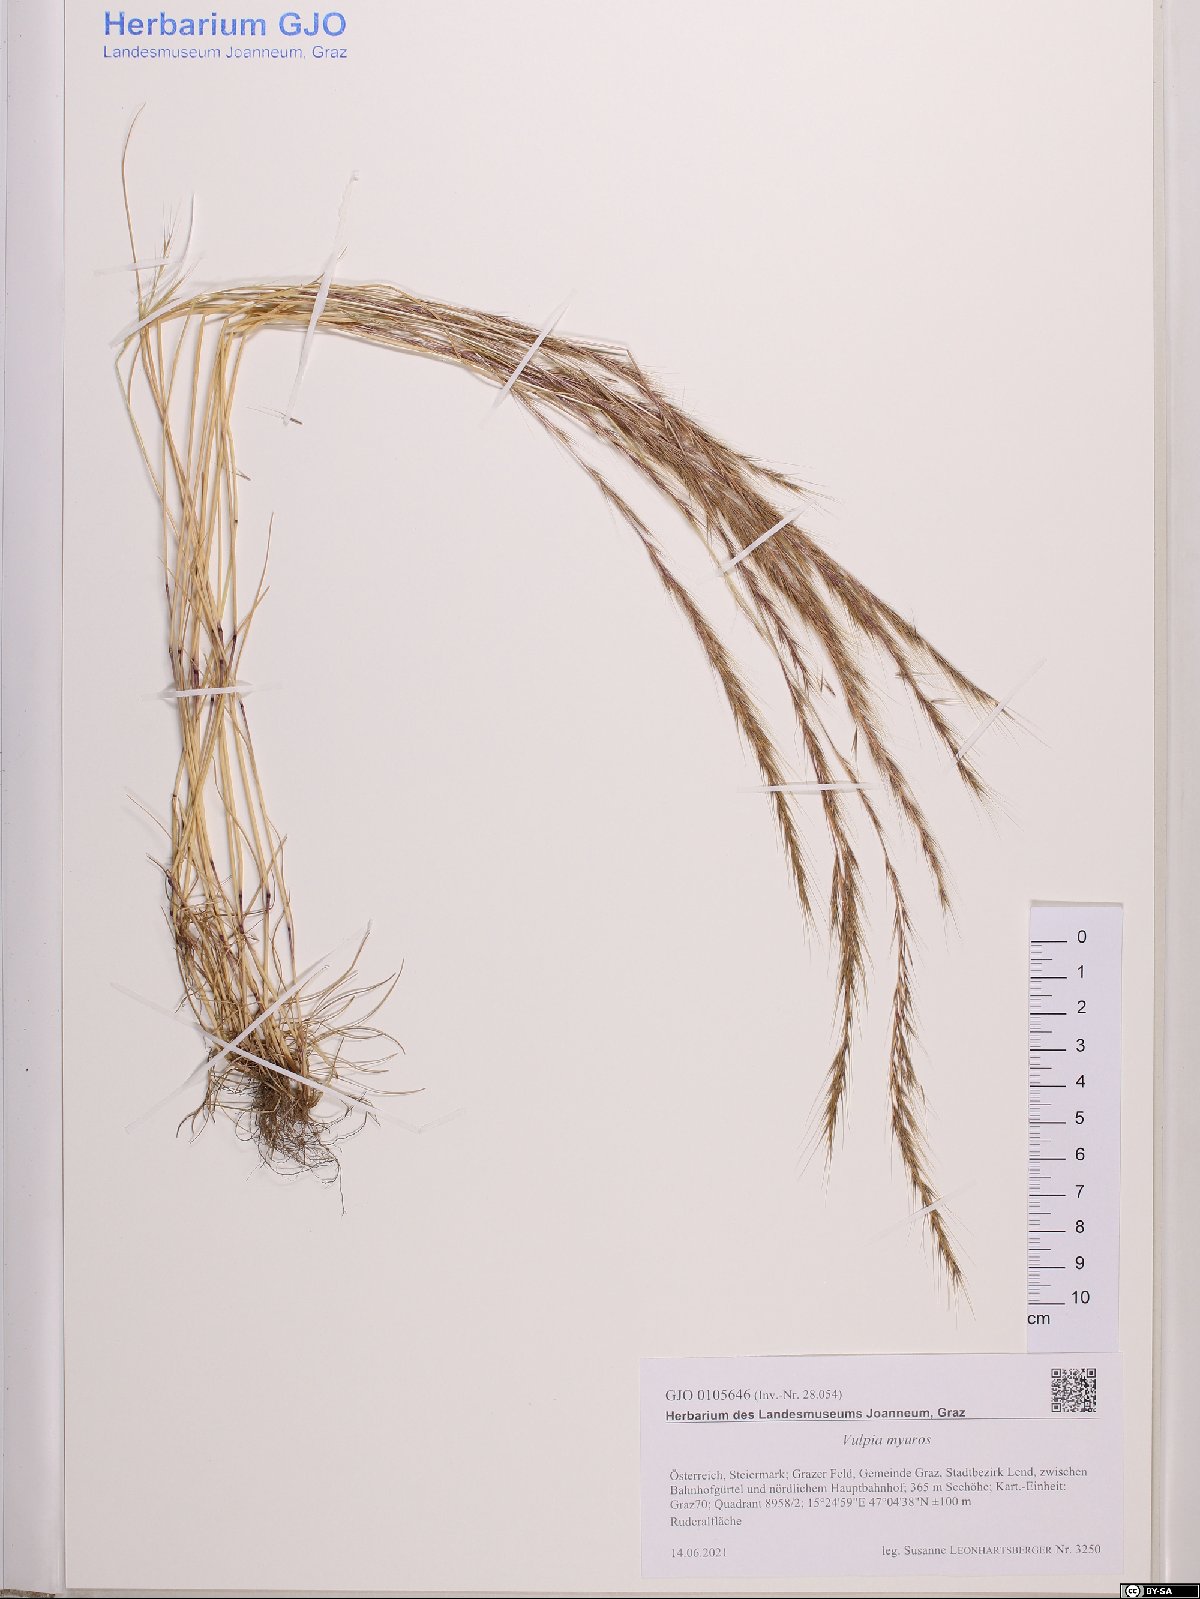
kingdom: Plantae
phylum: Tracheophyta
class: Liliopsida
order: Poales
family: Poaceae
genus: Festuca
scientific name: Festuca myuros
